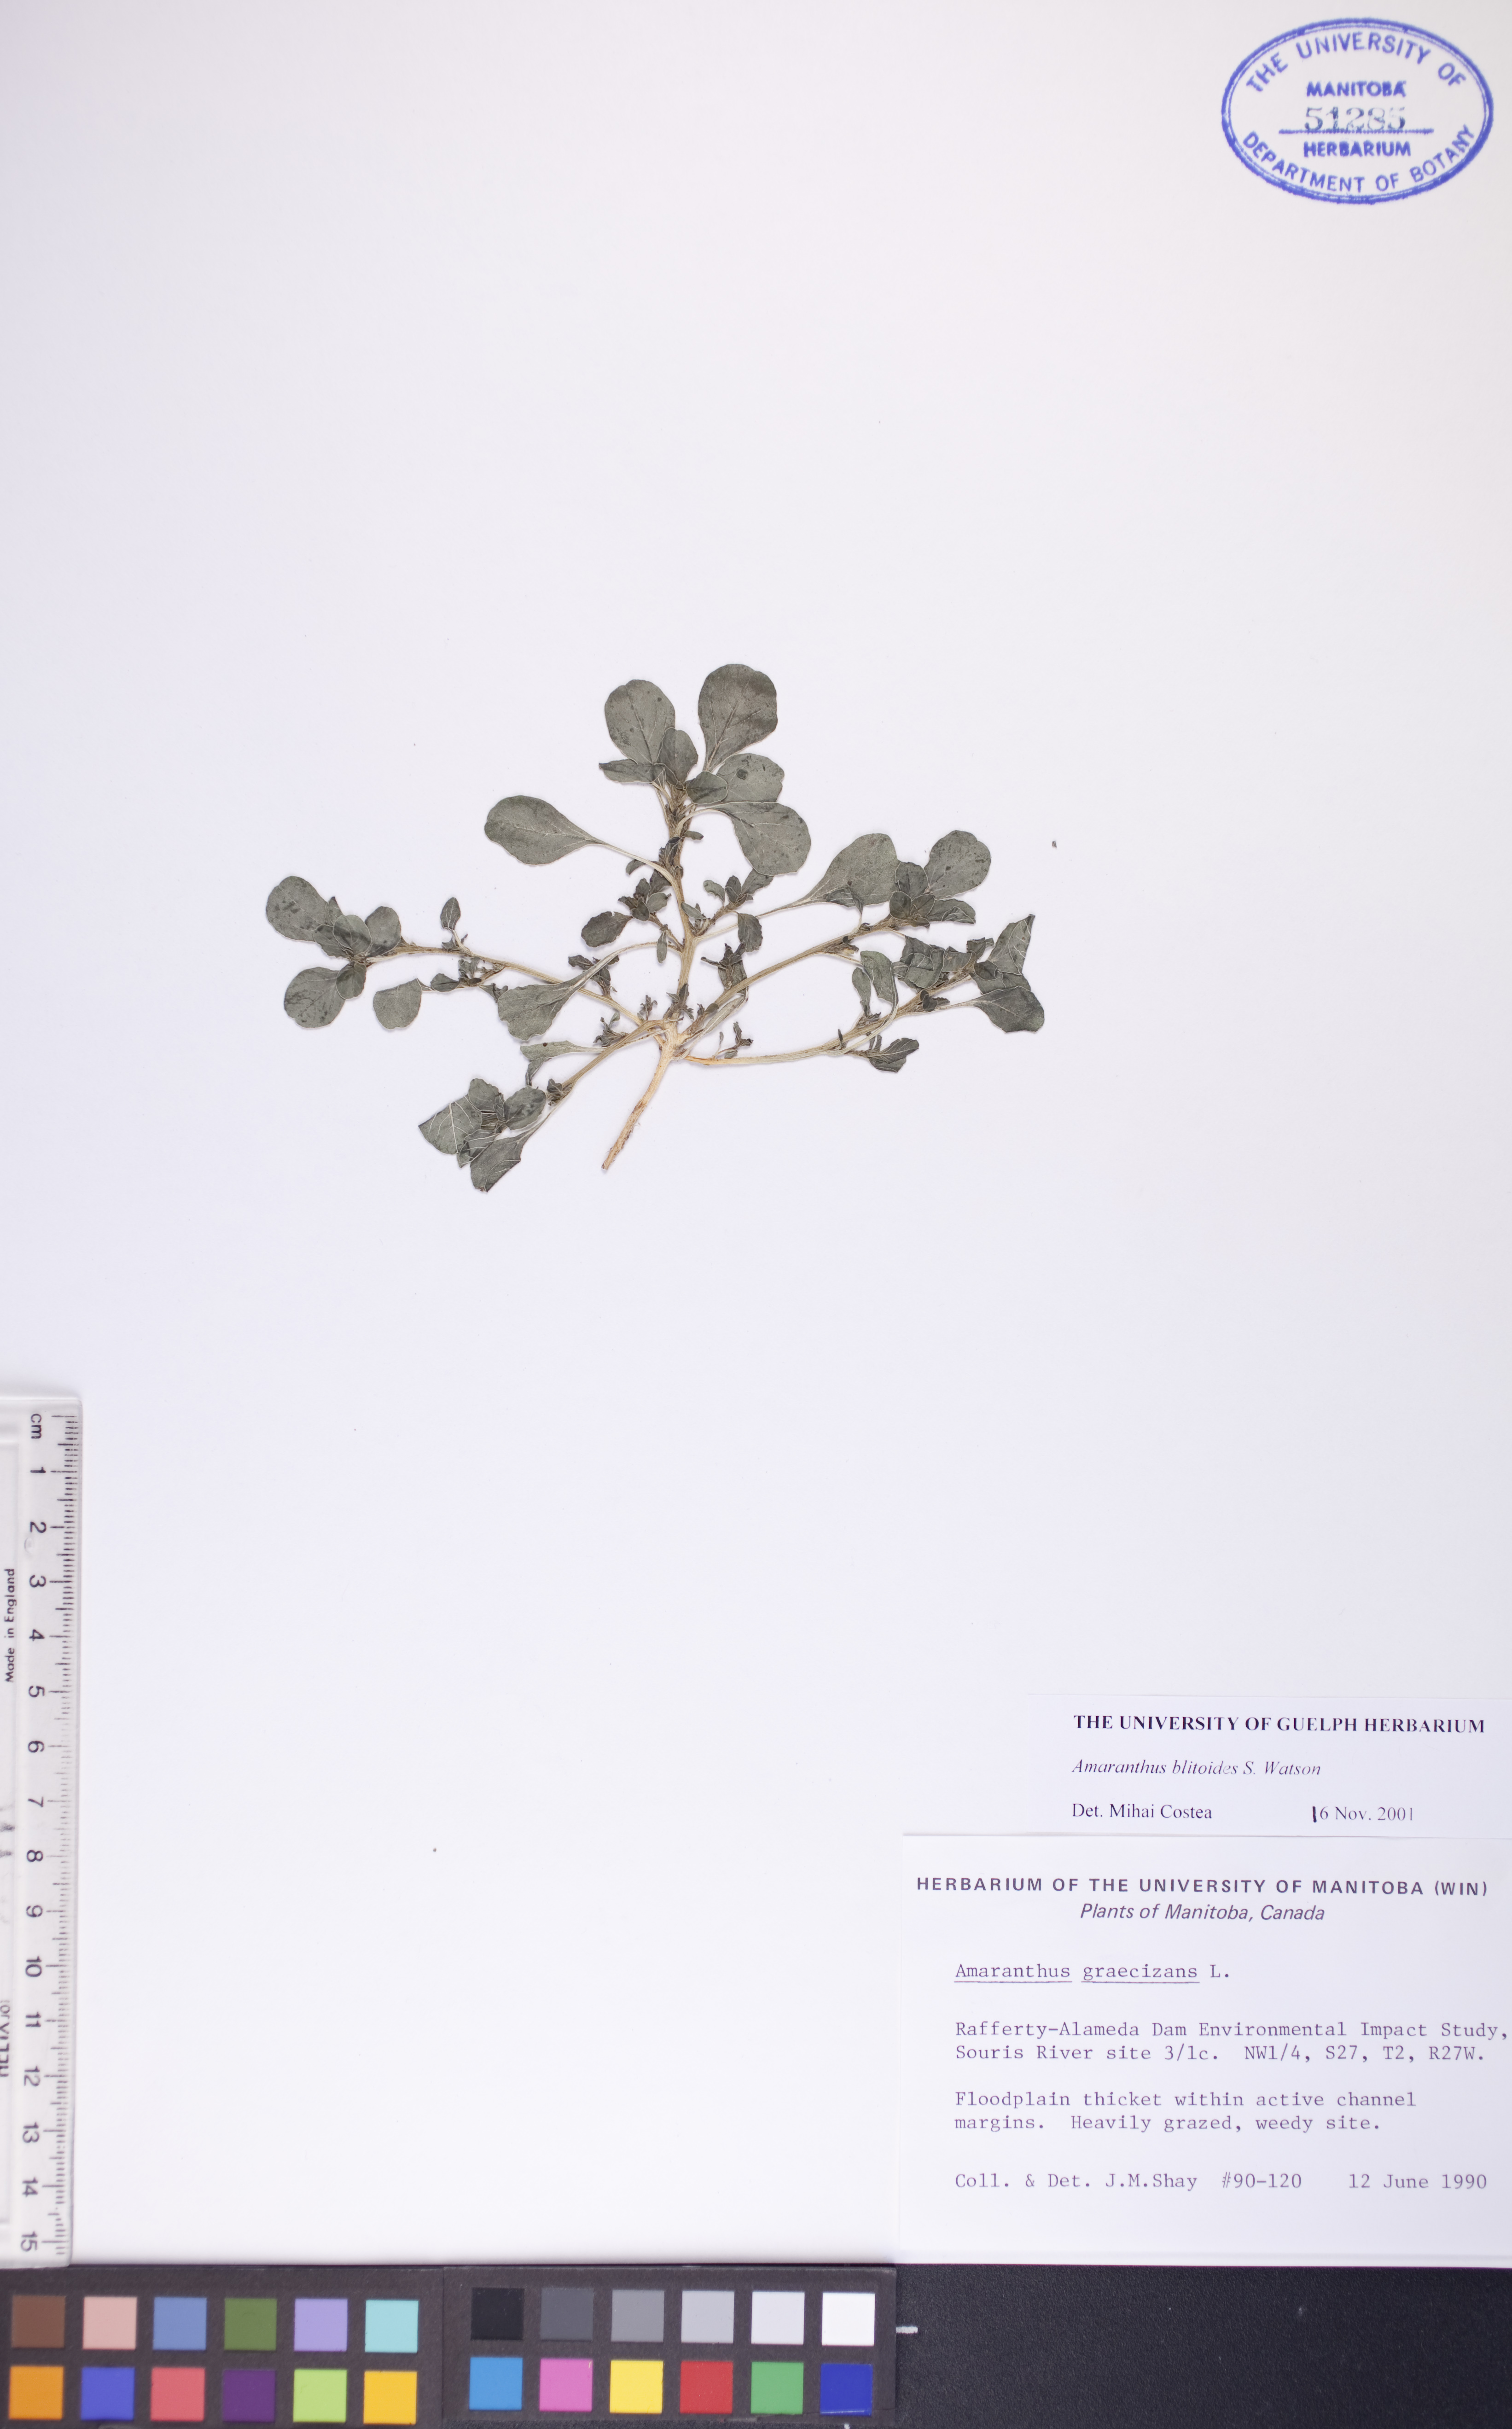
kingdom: Plantae
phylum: Tracheophyta
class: Magnoliopsida
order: Caryophyllales
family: Amaranthaceae
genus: Amaranthus
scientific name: Amaranthus blitoides
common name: Prostrate pigweed
